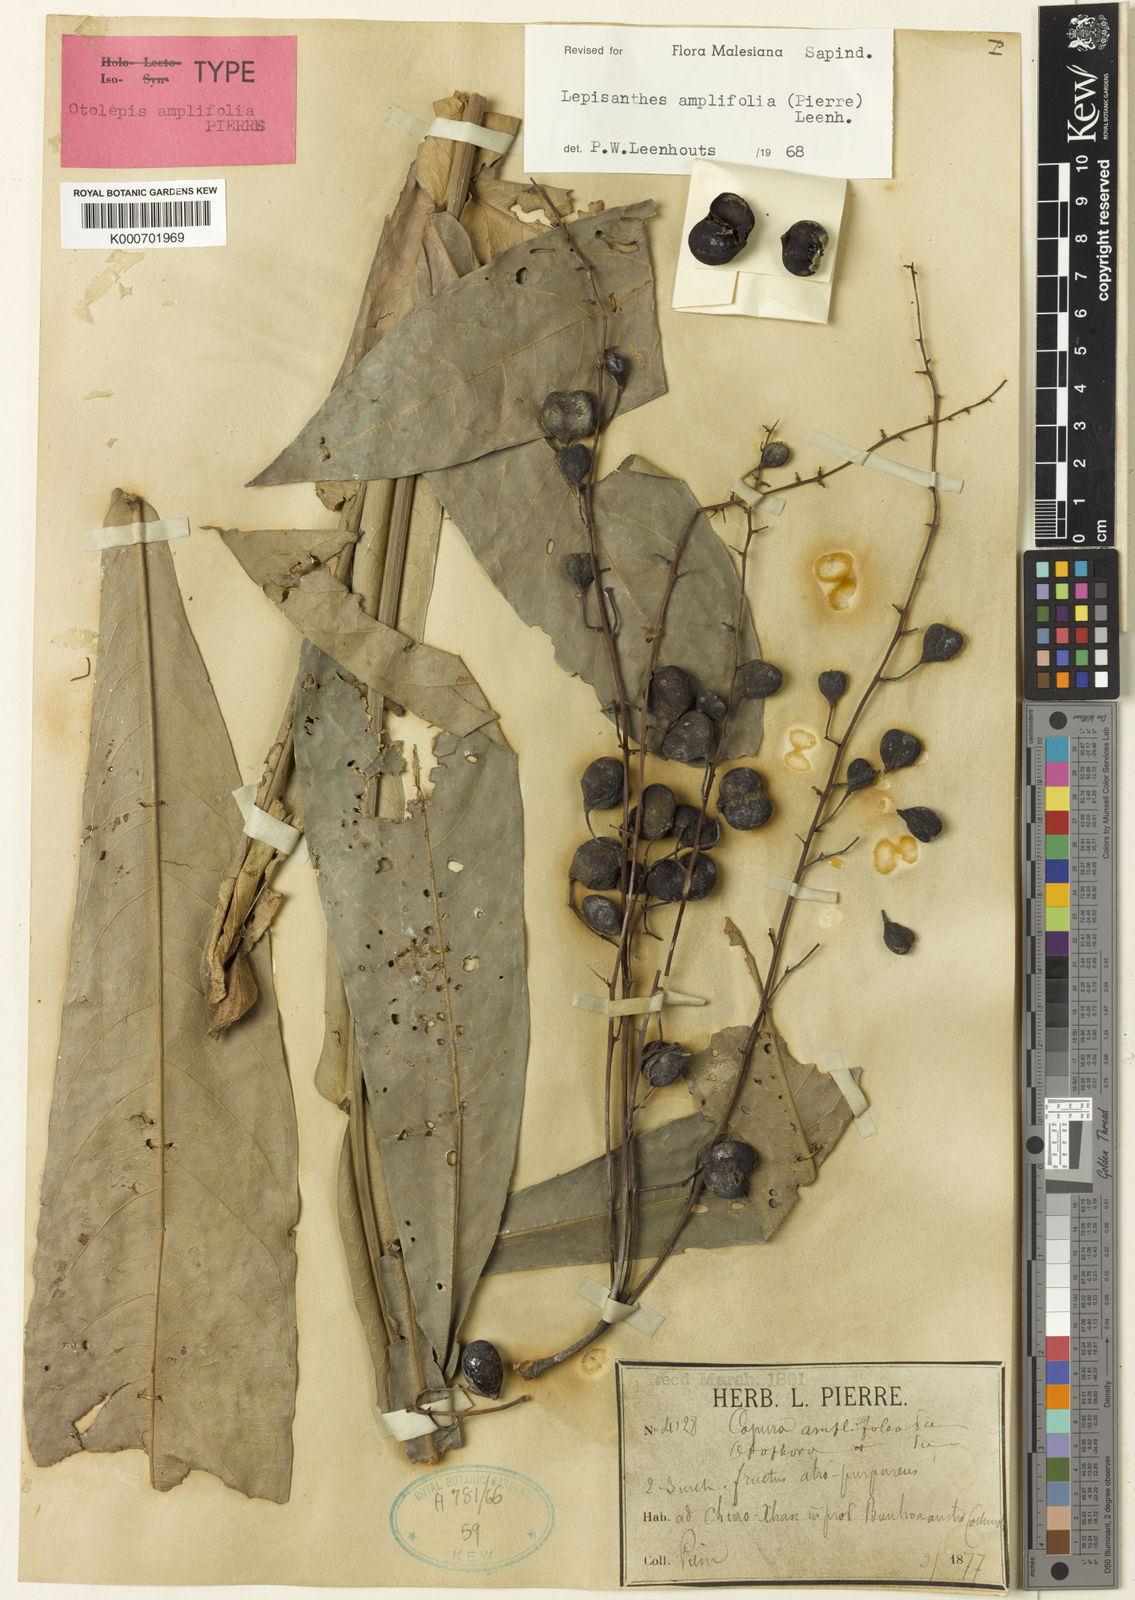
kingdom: Plantae
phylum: Tracheophyta
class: Magnoliopsida
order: Sapindales
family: Sapindaceae
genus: Lepisanthes
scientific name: Lepisanthes amplifolia
